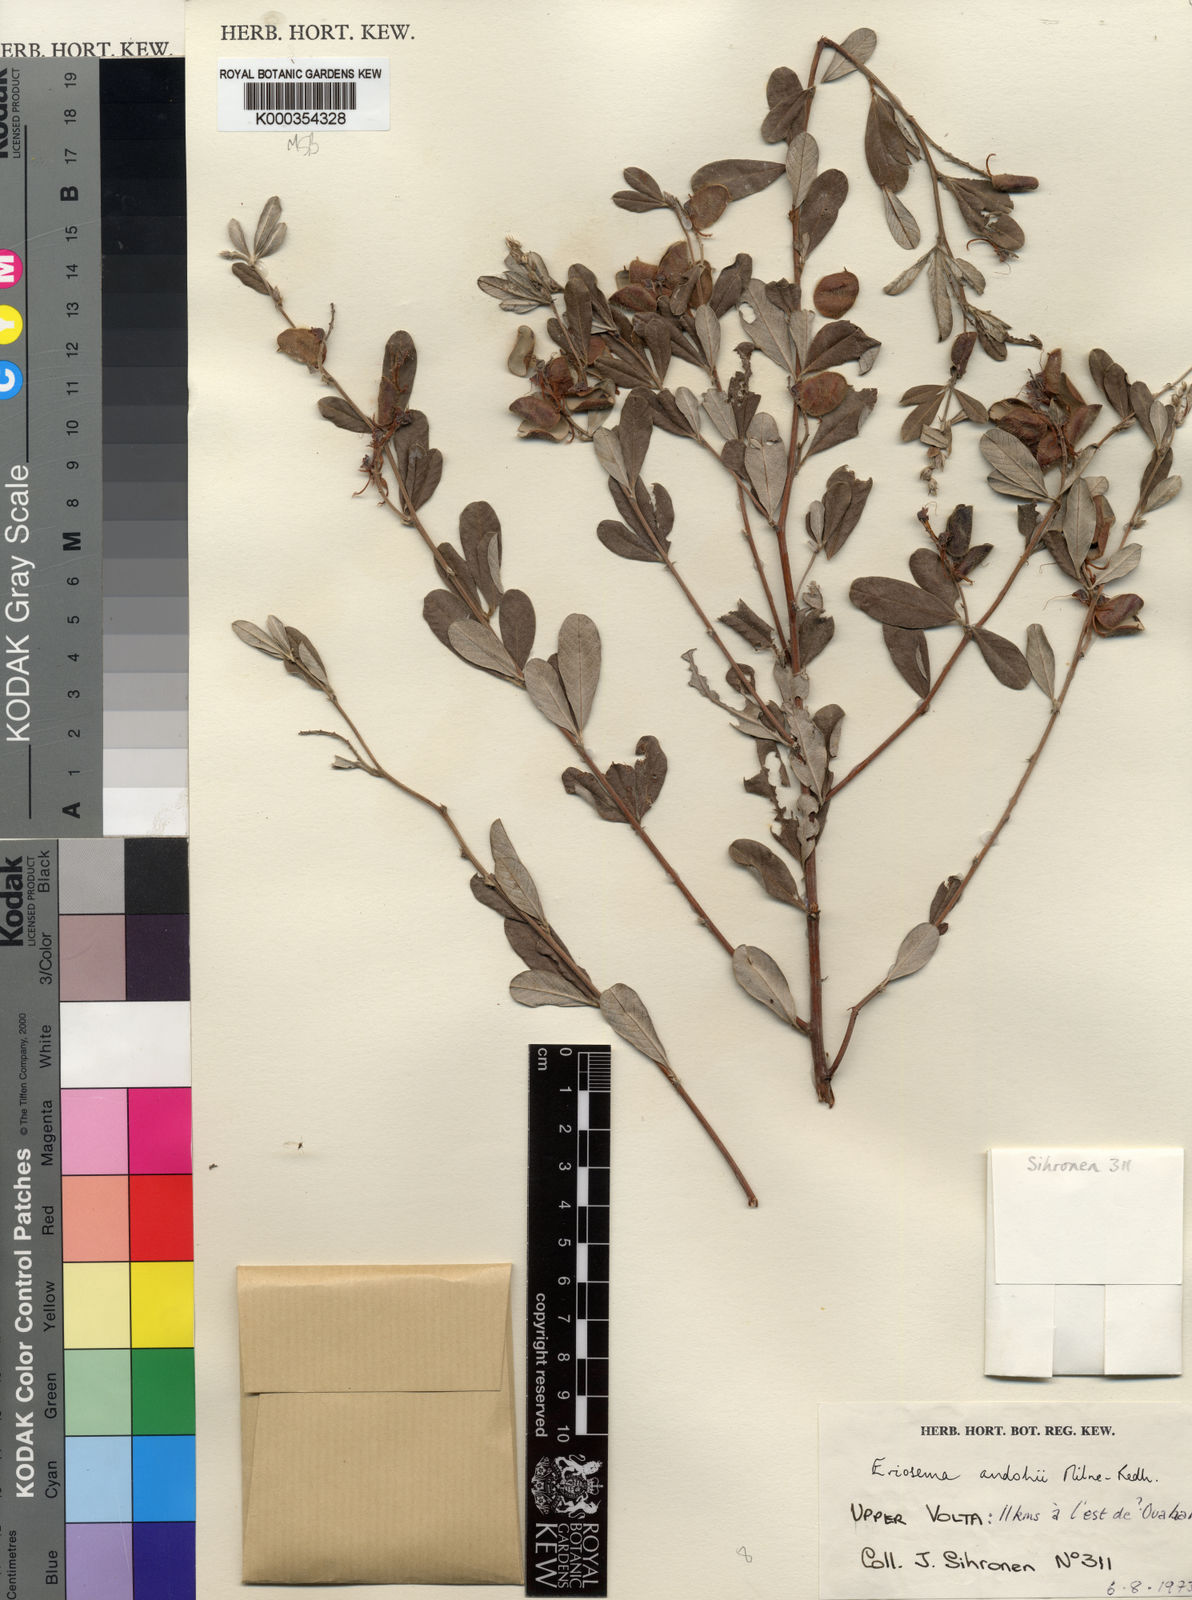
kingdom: Plantae
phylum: Tracheophyta
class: Magnoliopsida
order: Fabales
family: Fabaceae
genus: Eriosema
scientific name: Eriosema andohii
